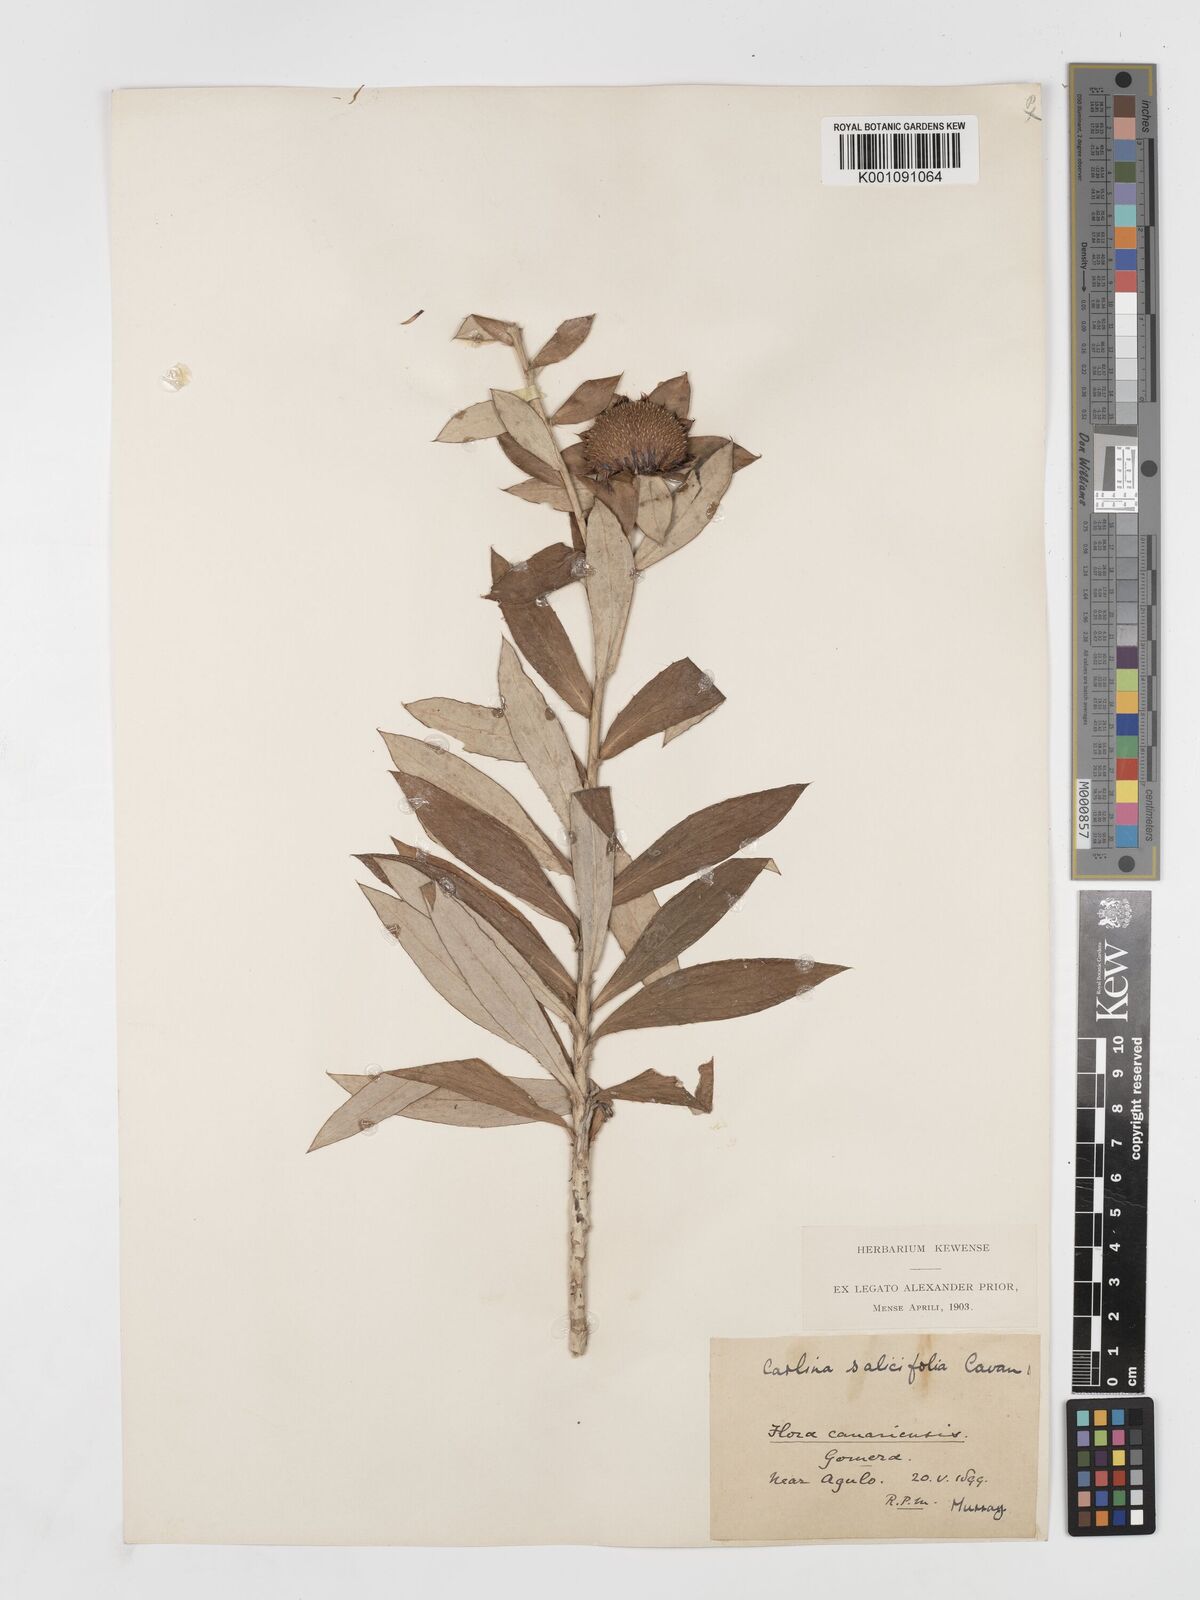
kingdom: Plantae
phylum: Tracheophyta
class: Magnoliopsida
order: Asterales
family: Asteraceae
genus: Carlina
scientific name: Carlina salicifolia
